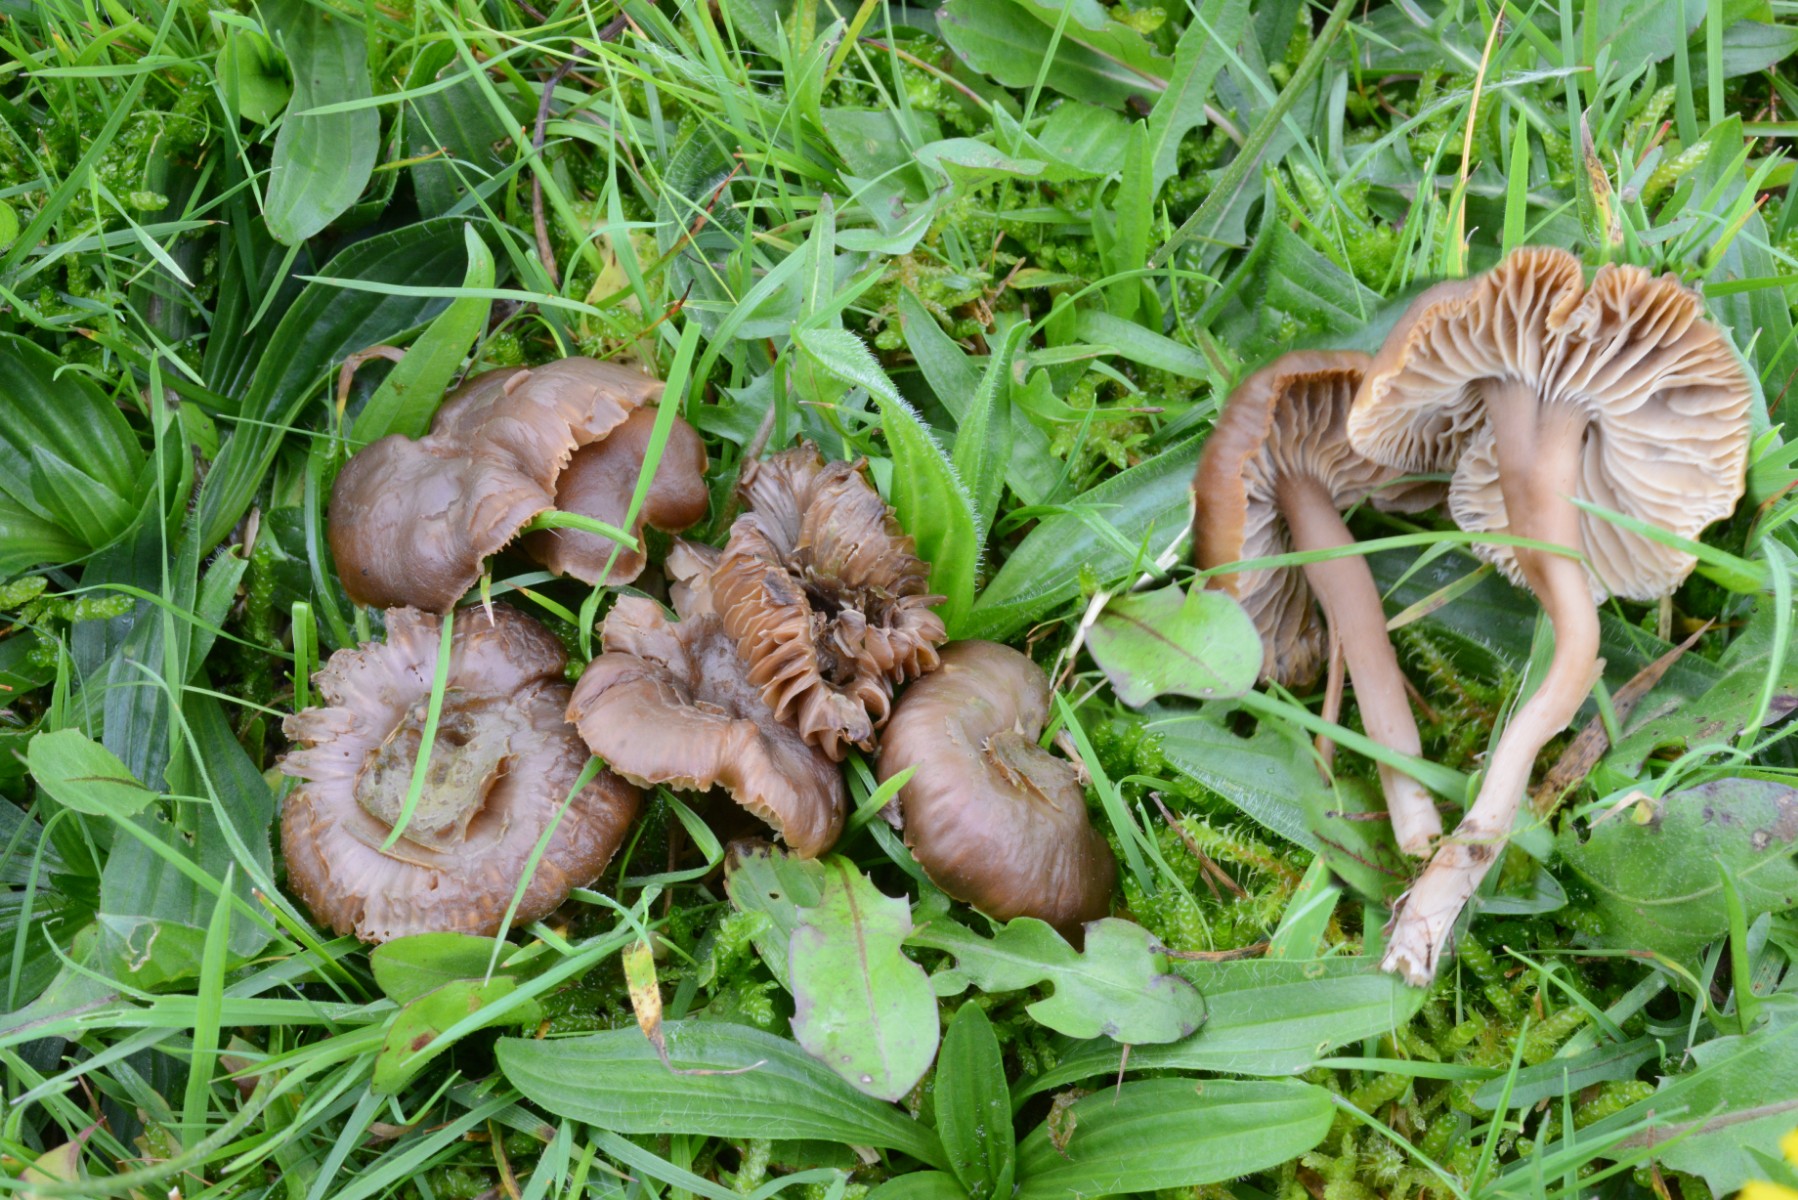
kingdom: Fungi
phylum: Basidiomycota
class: Agaricomycetes
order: Agaricales
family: Clavariaceae
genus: Camarophyllopsis
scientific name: Camarophyllopsis schulzeri
